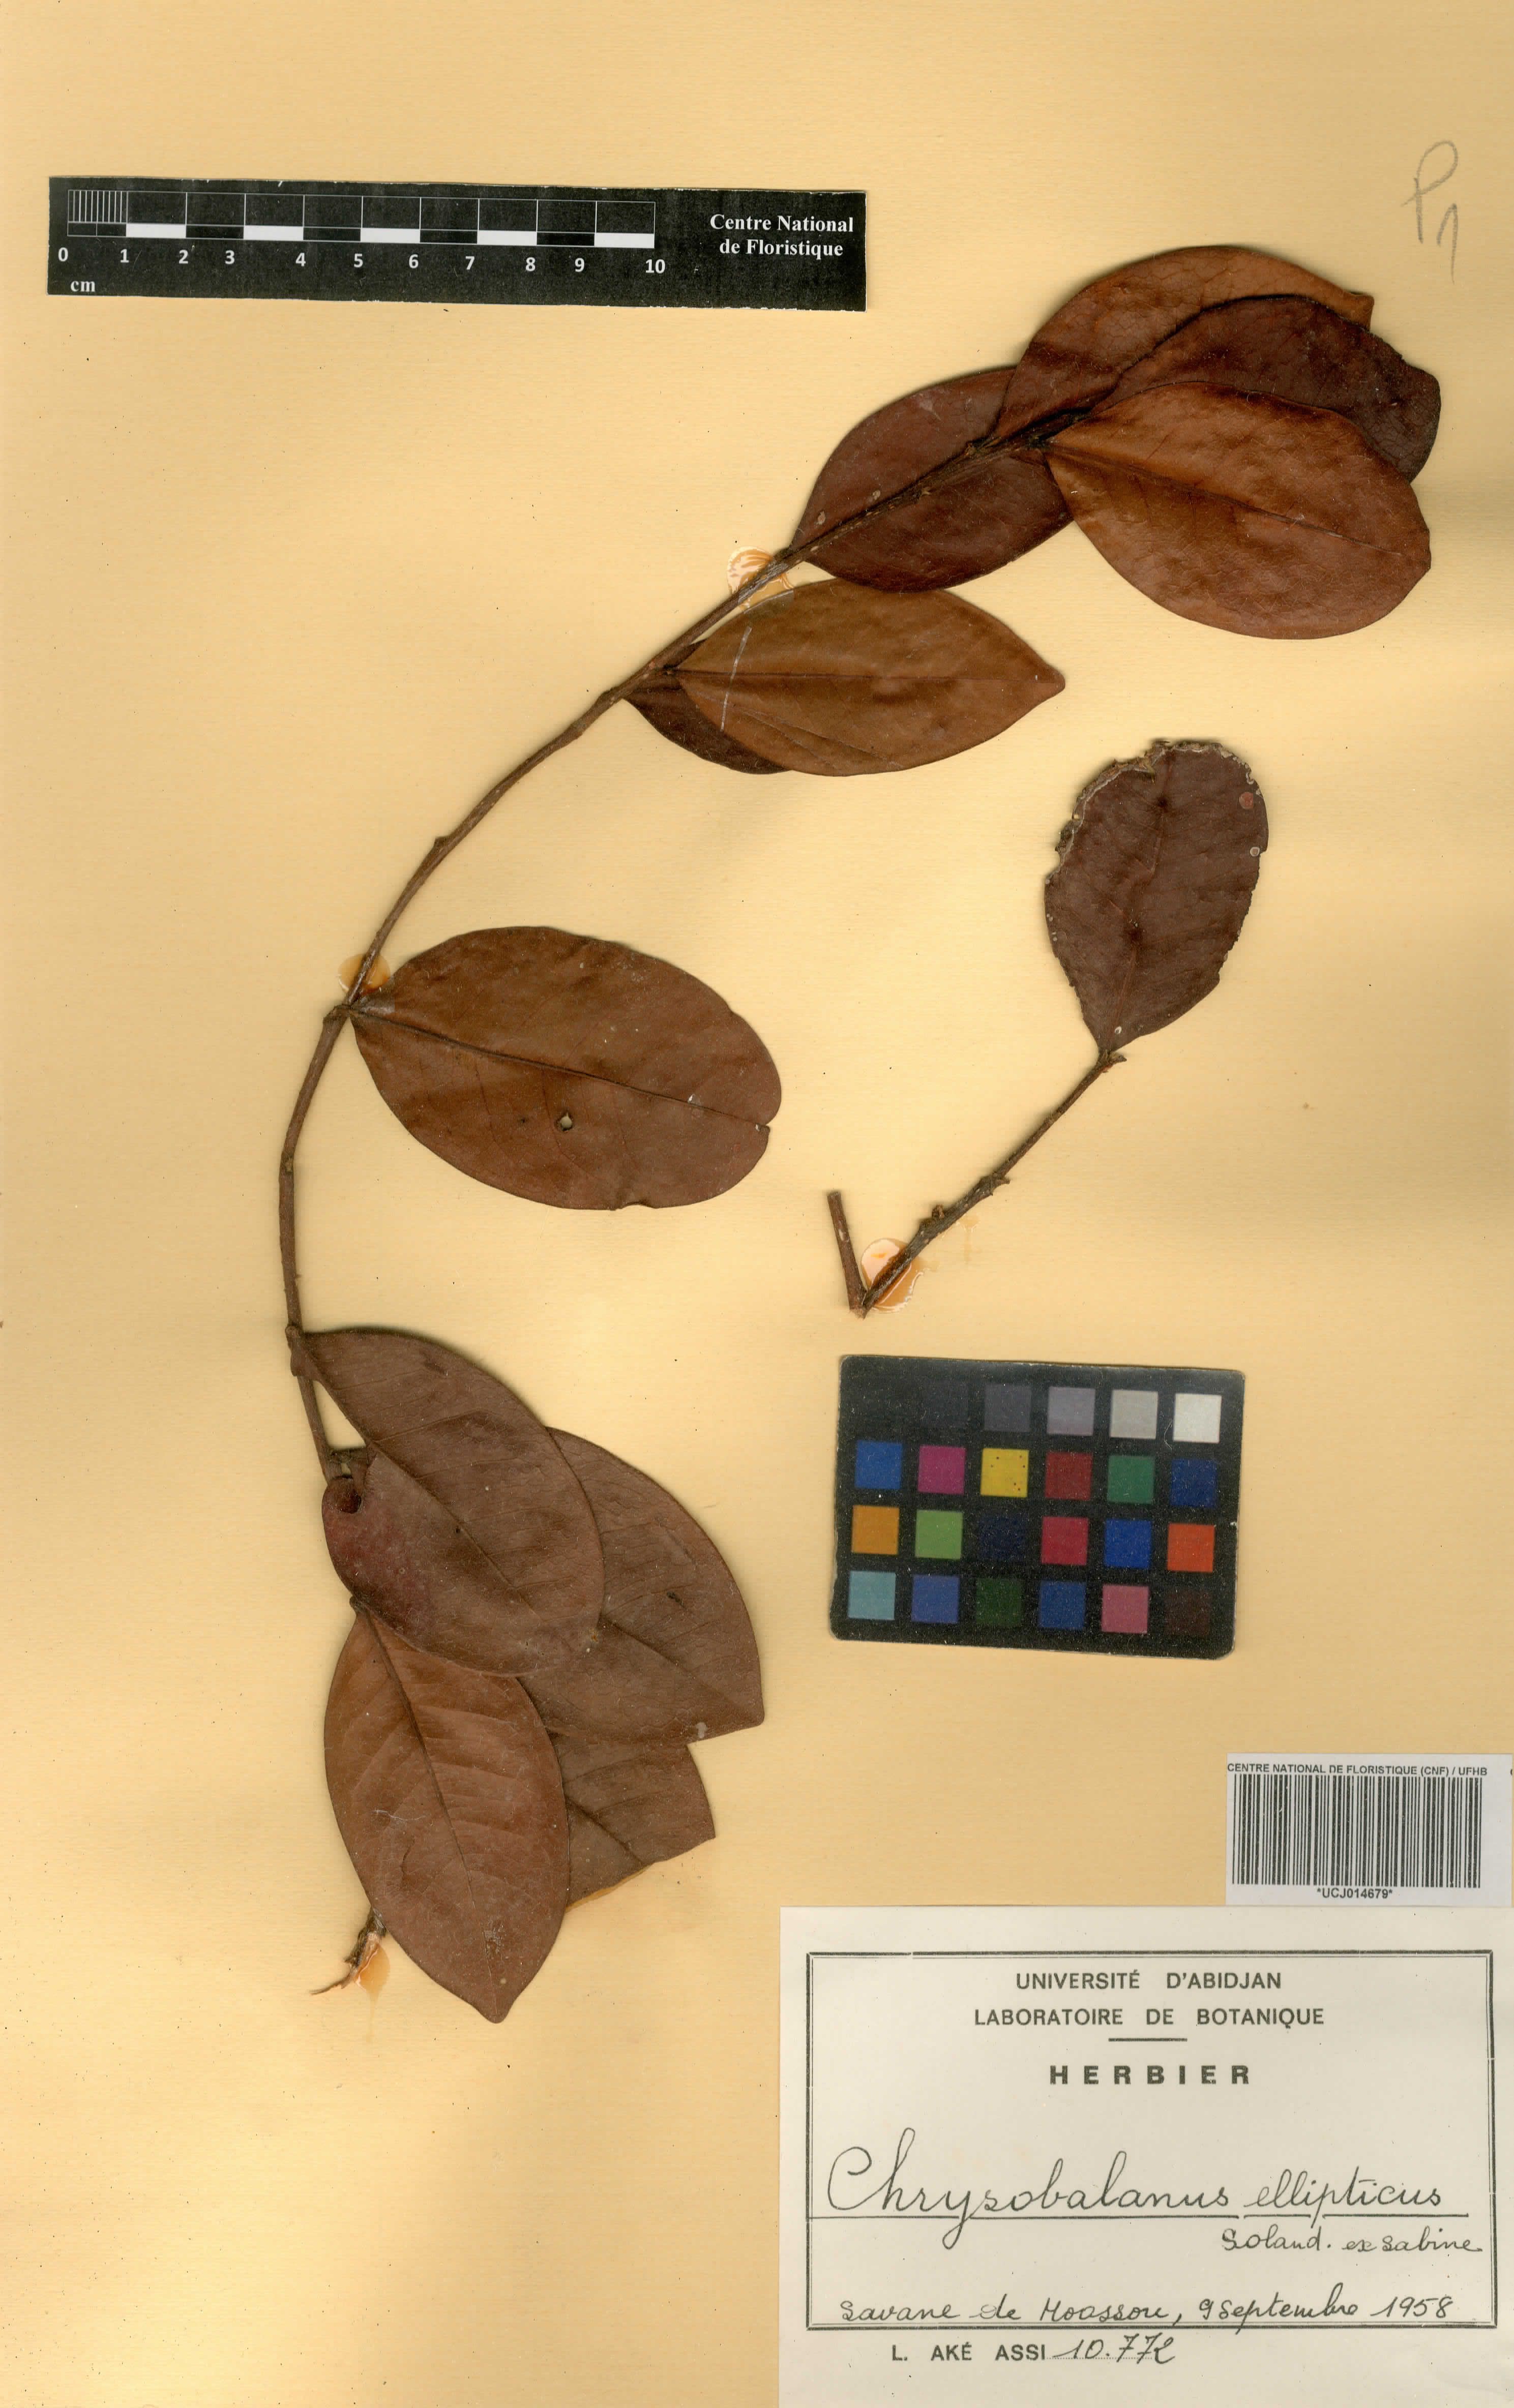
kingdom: Plantae
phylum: Tracheophyta
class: Magnoliopsida
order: Malpighiales
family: Chrysobalanaceae
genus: Chrysobalanus
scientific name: Chrysobalanus icaco
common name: Coco plum
